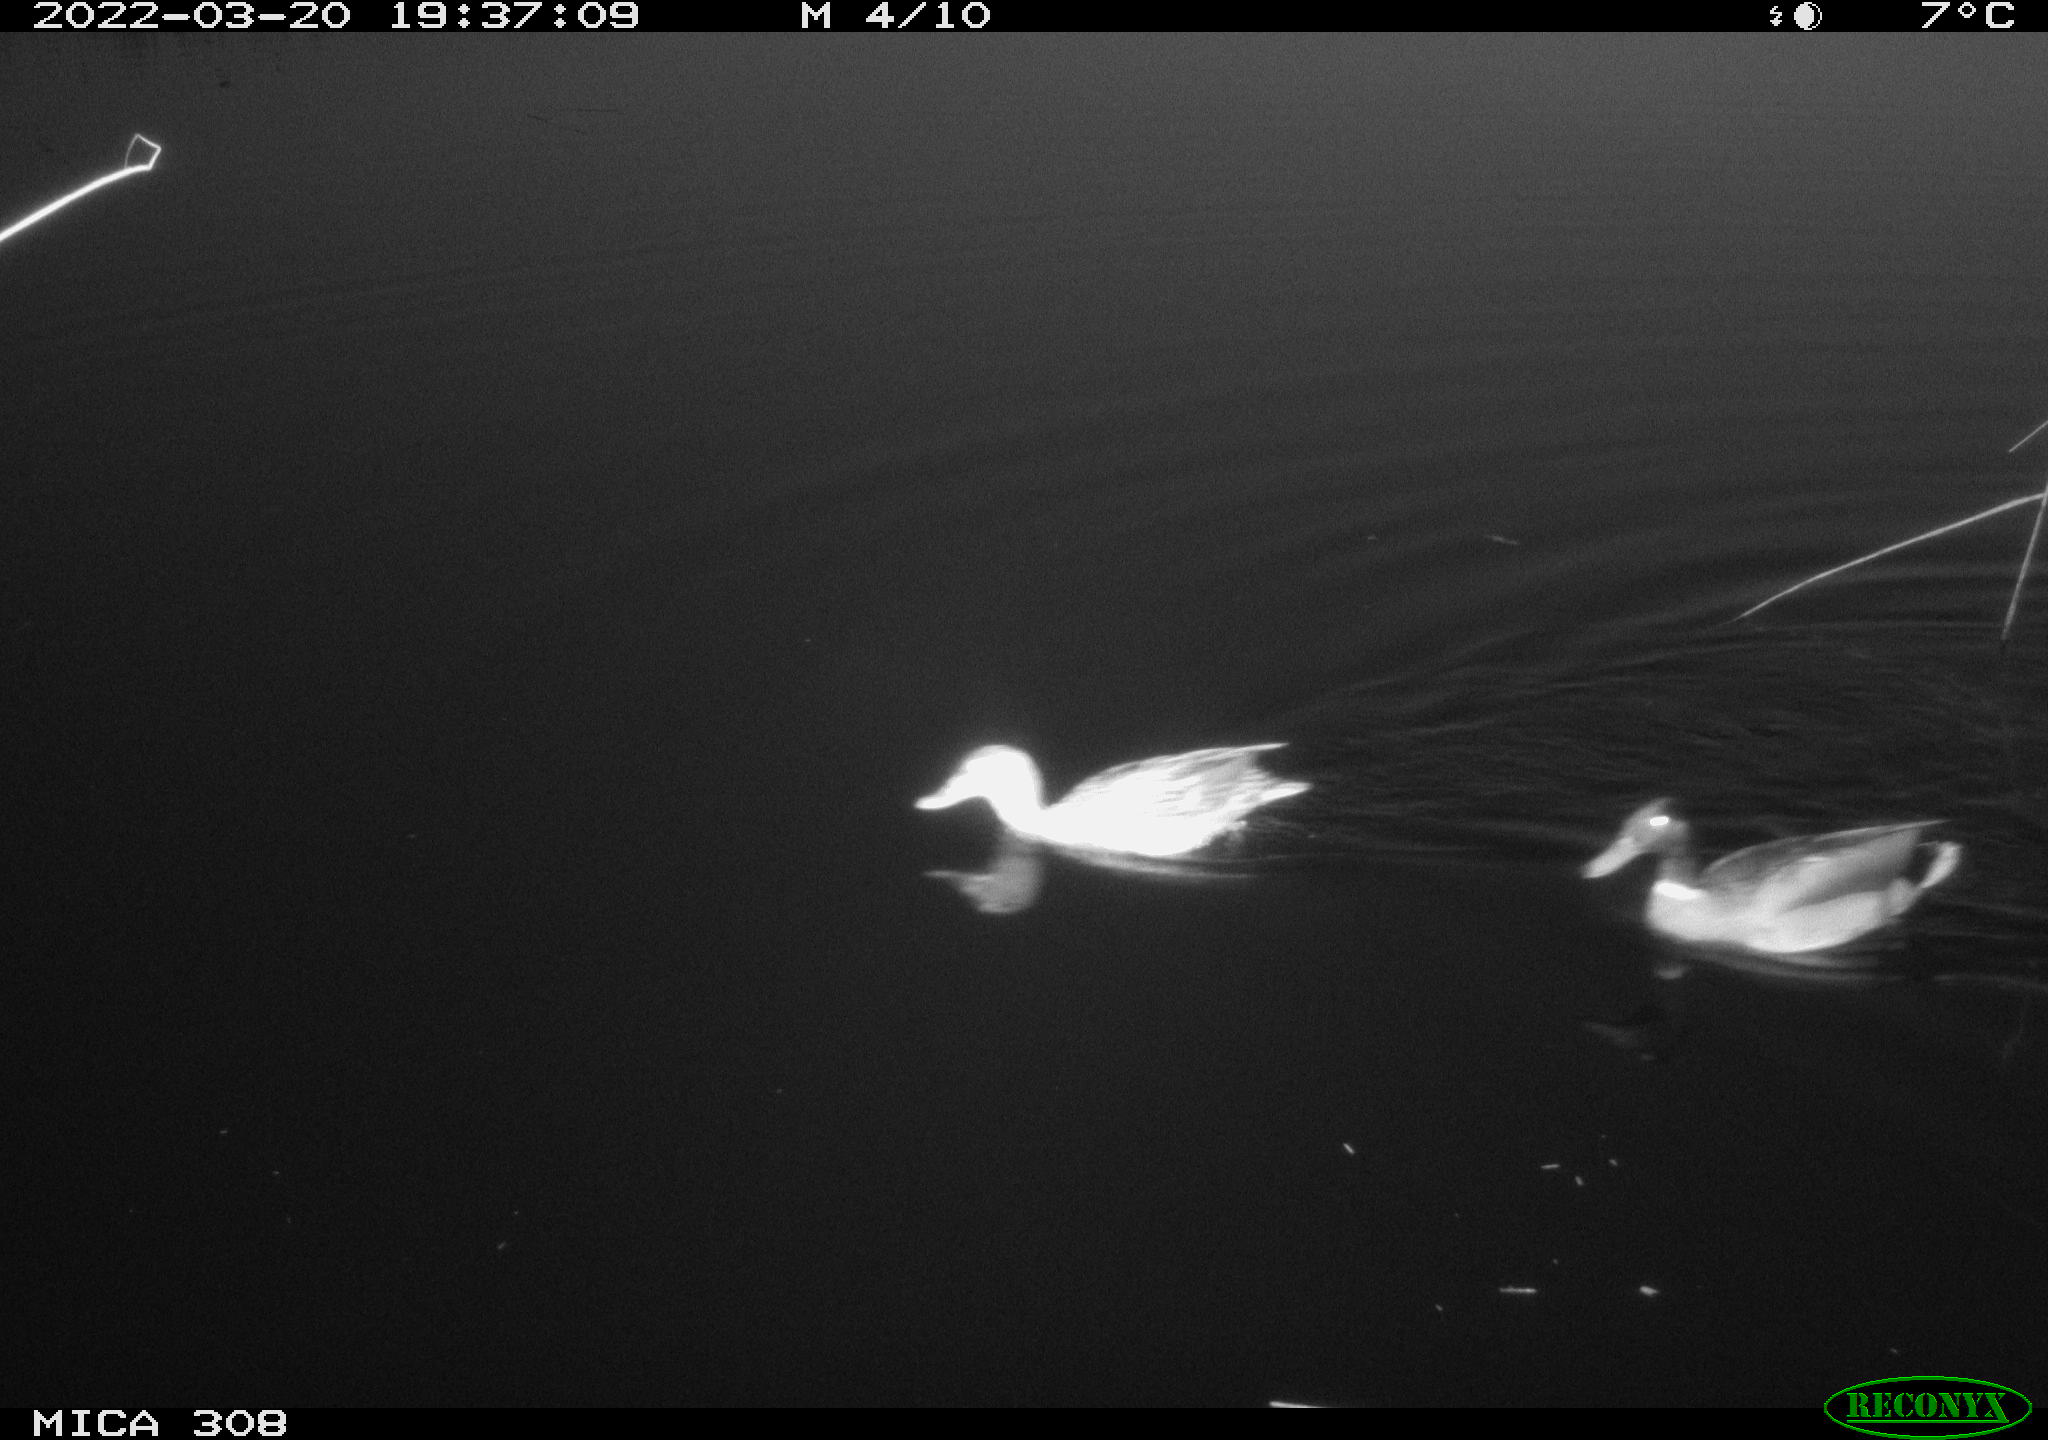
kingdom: Animalia
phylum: Chordata
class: Aves
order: Anseriformes
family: Anatidae
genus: Anas
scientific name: Anas platyrhynchos
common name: Mallard
